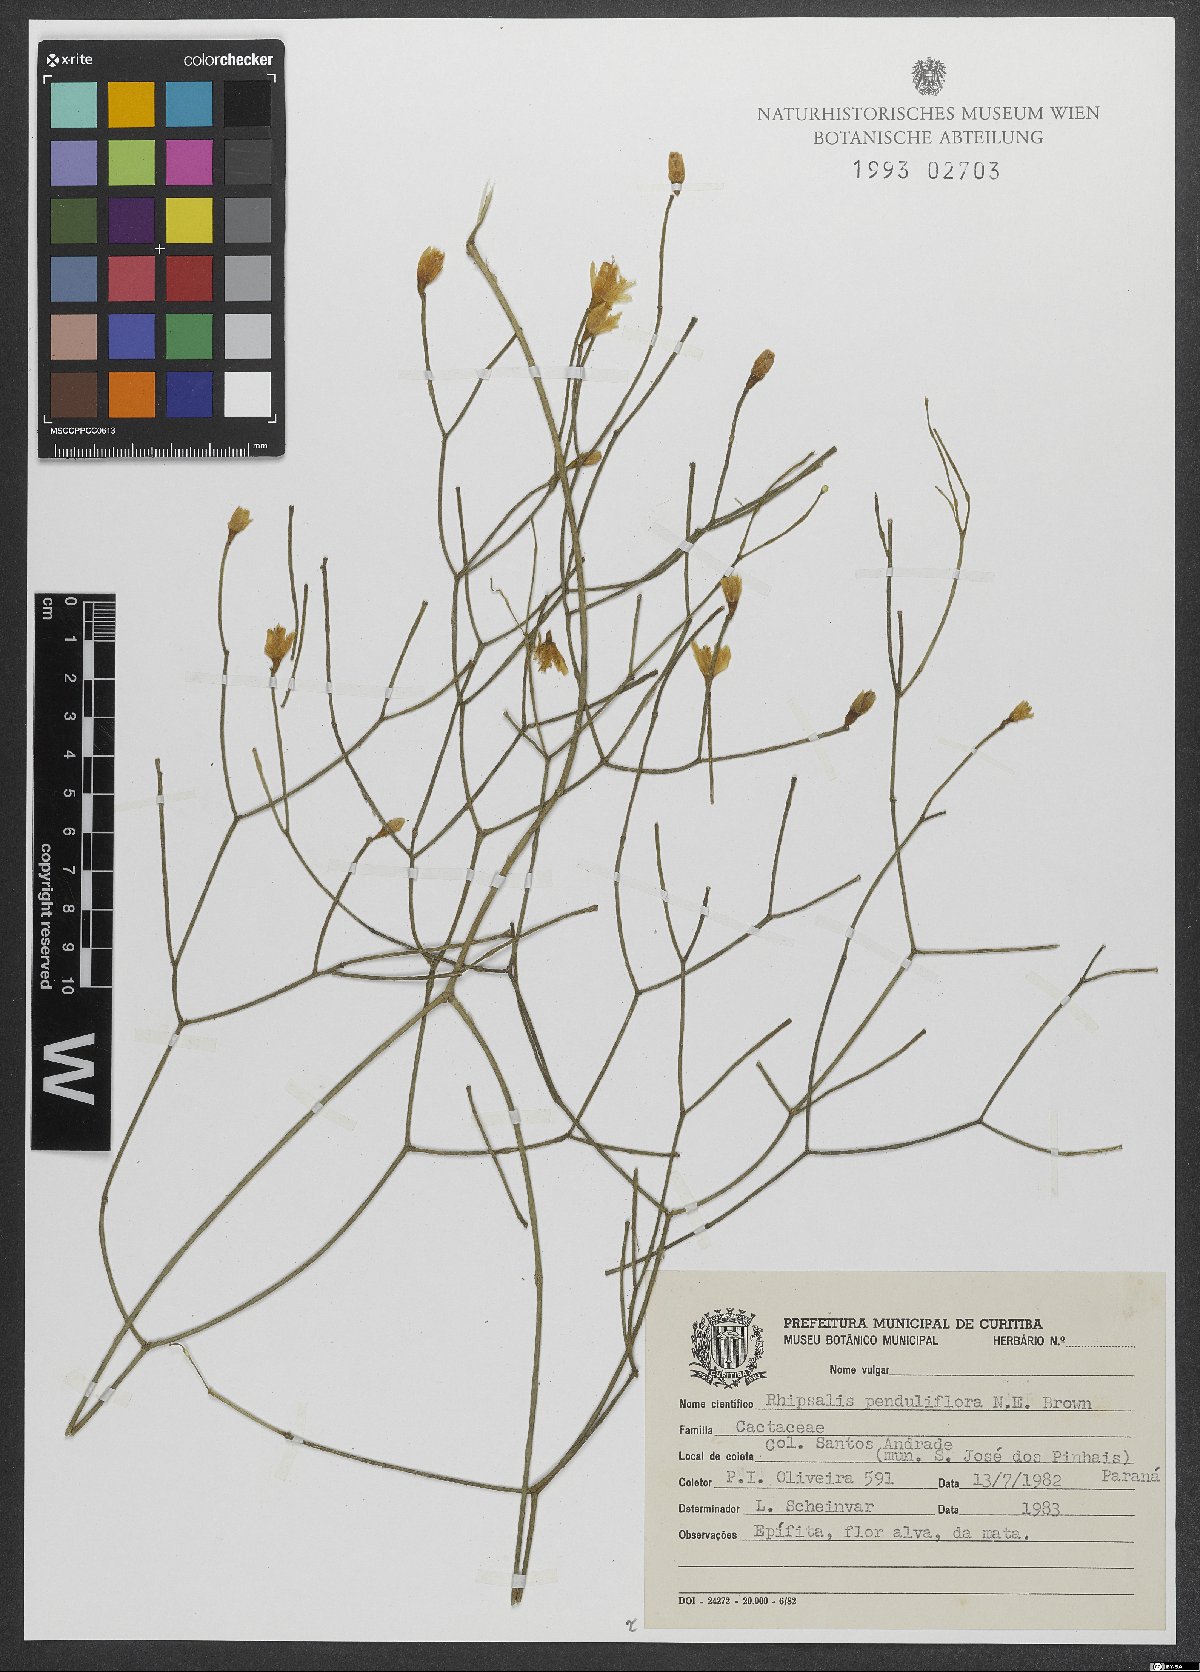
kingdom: Plantae
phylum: Tracheophyta
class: Magnoliopsida
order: Caryophyllales
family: Cactaceae
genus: Rhipsalis
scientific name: Rhipsalis teres
